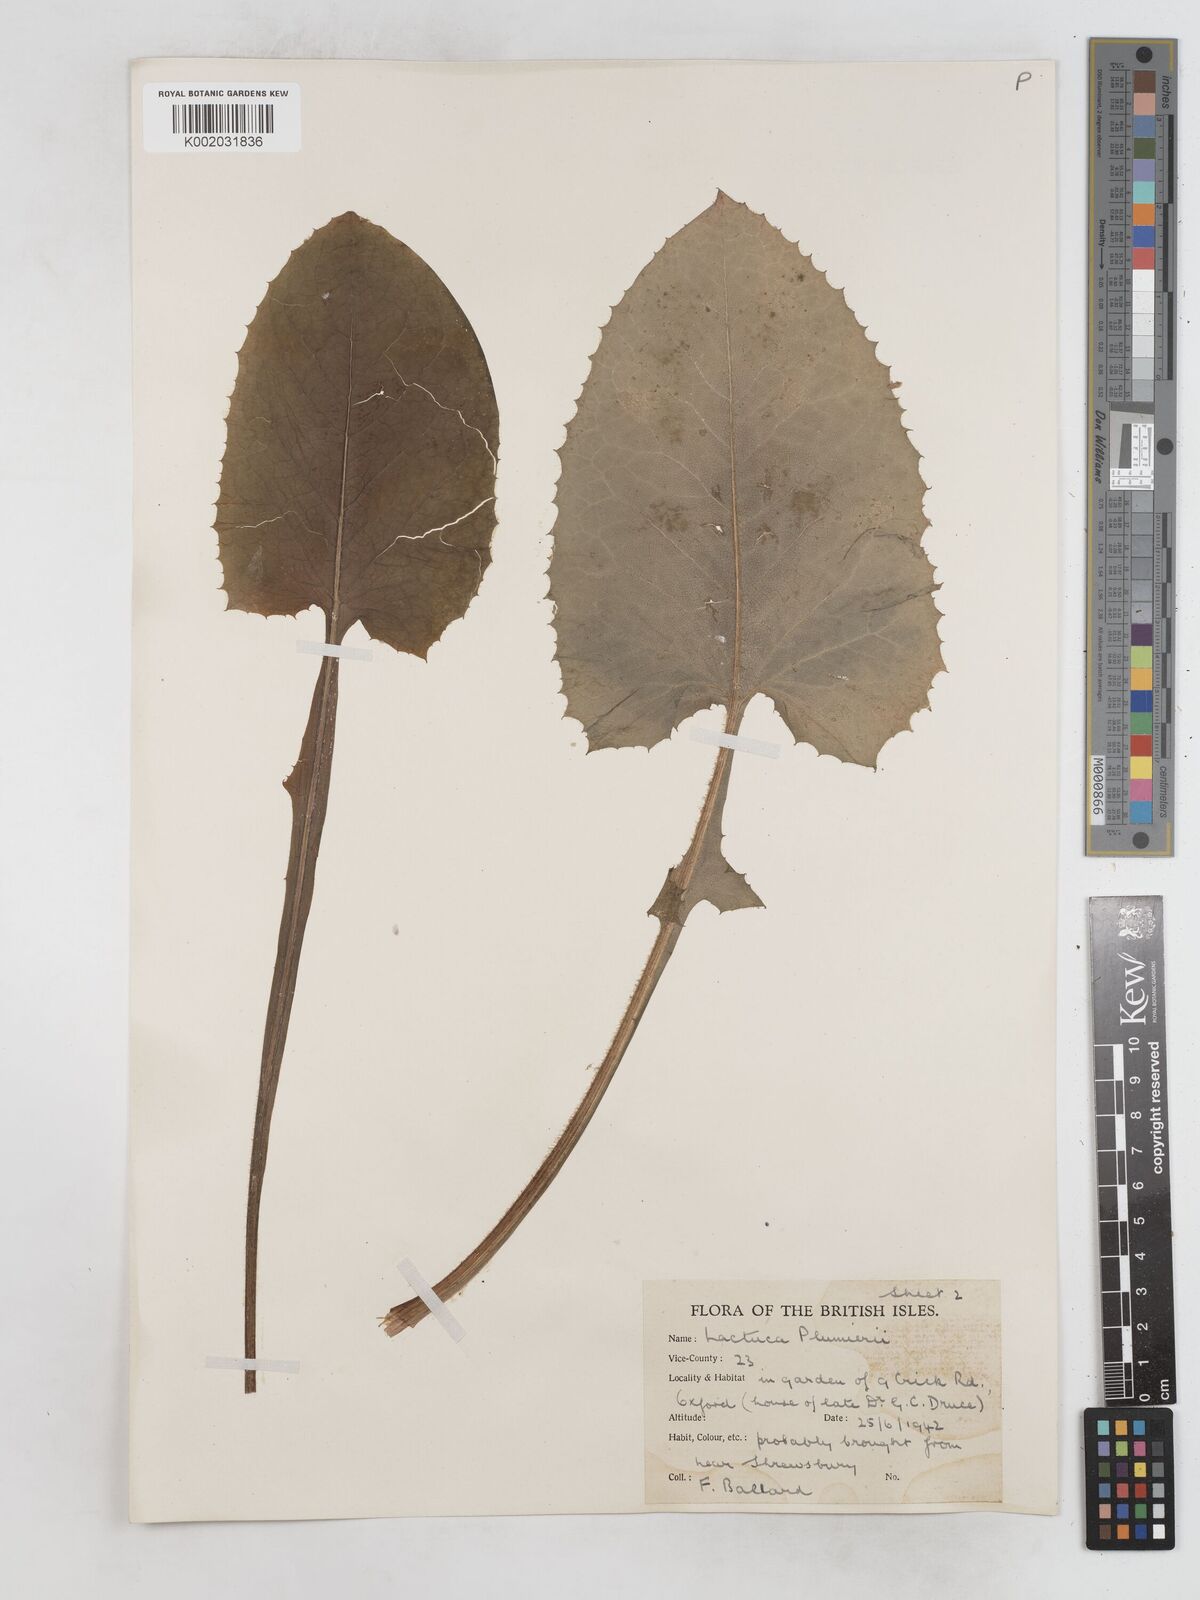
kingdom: Plantae
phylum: Tracheophyta
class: Magnoliopsida
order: Asterales
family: Asteraceae
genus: Lactuca
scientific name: Lactuca macrophylla
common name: Common blue-sow-thistle
